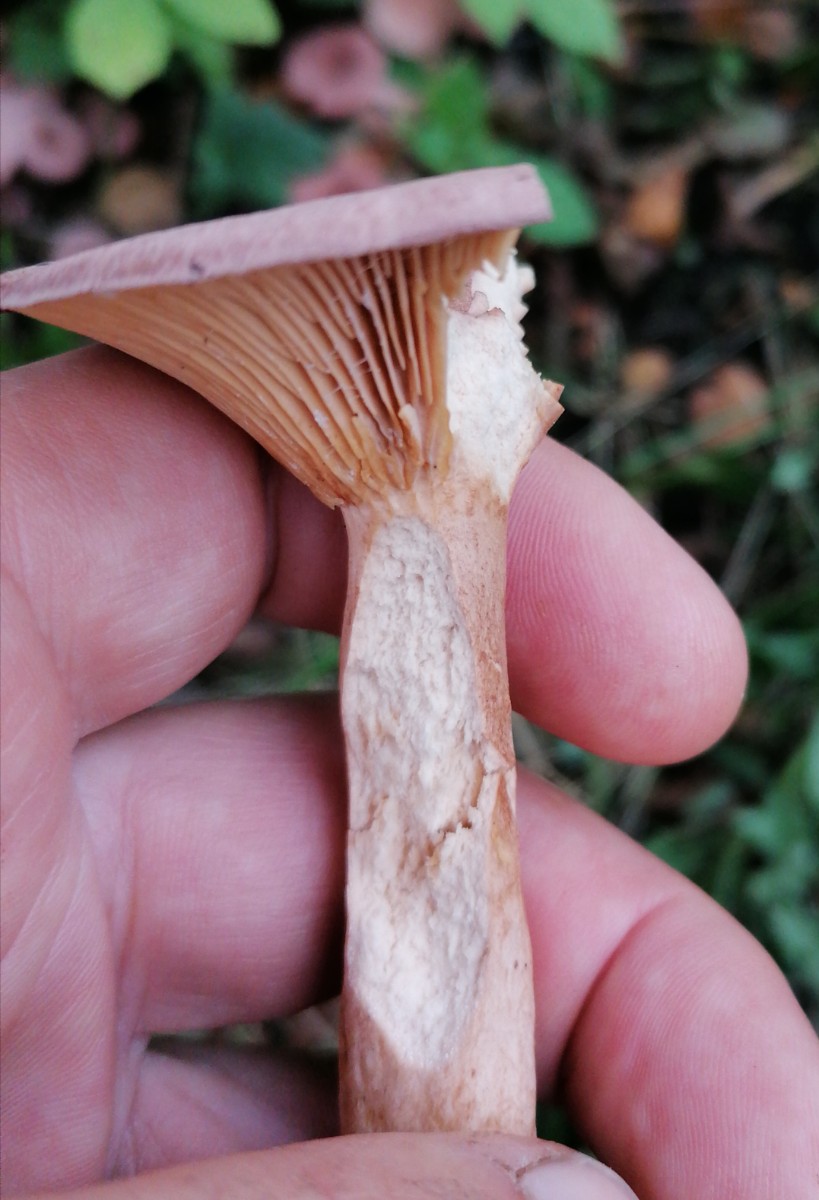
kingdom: Fungi
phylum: Basidiomycota
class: Agaricomycetes
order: Russulales
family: Russulaceae
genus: Lactarius
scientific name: Lactarius lilacinus
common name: lilla mælkehat
